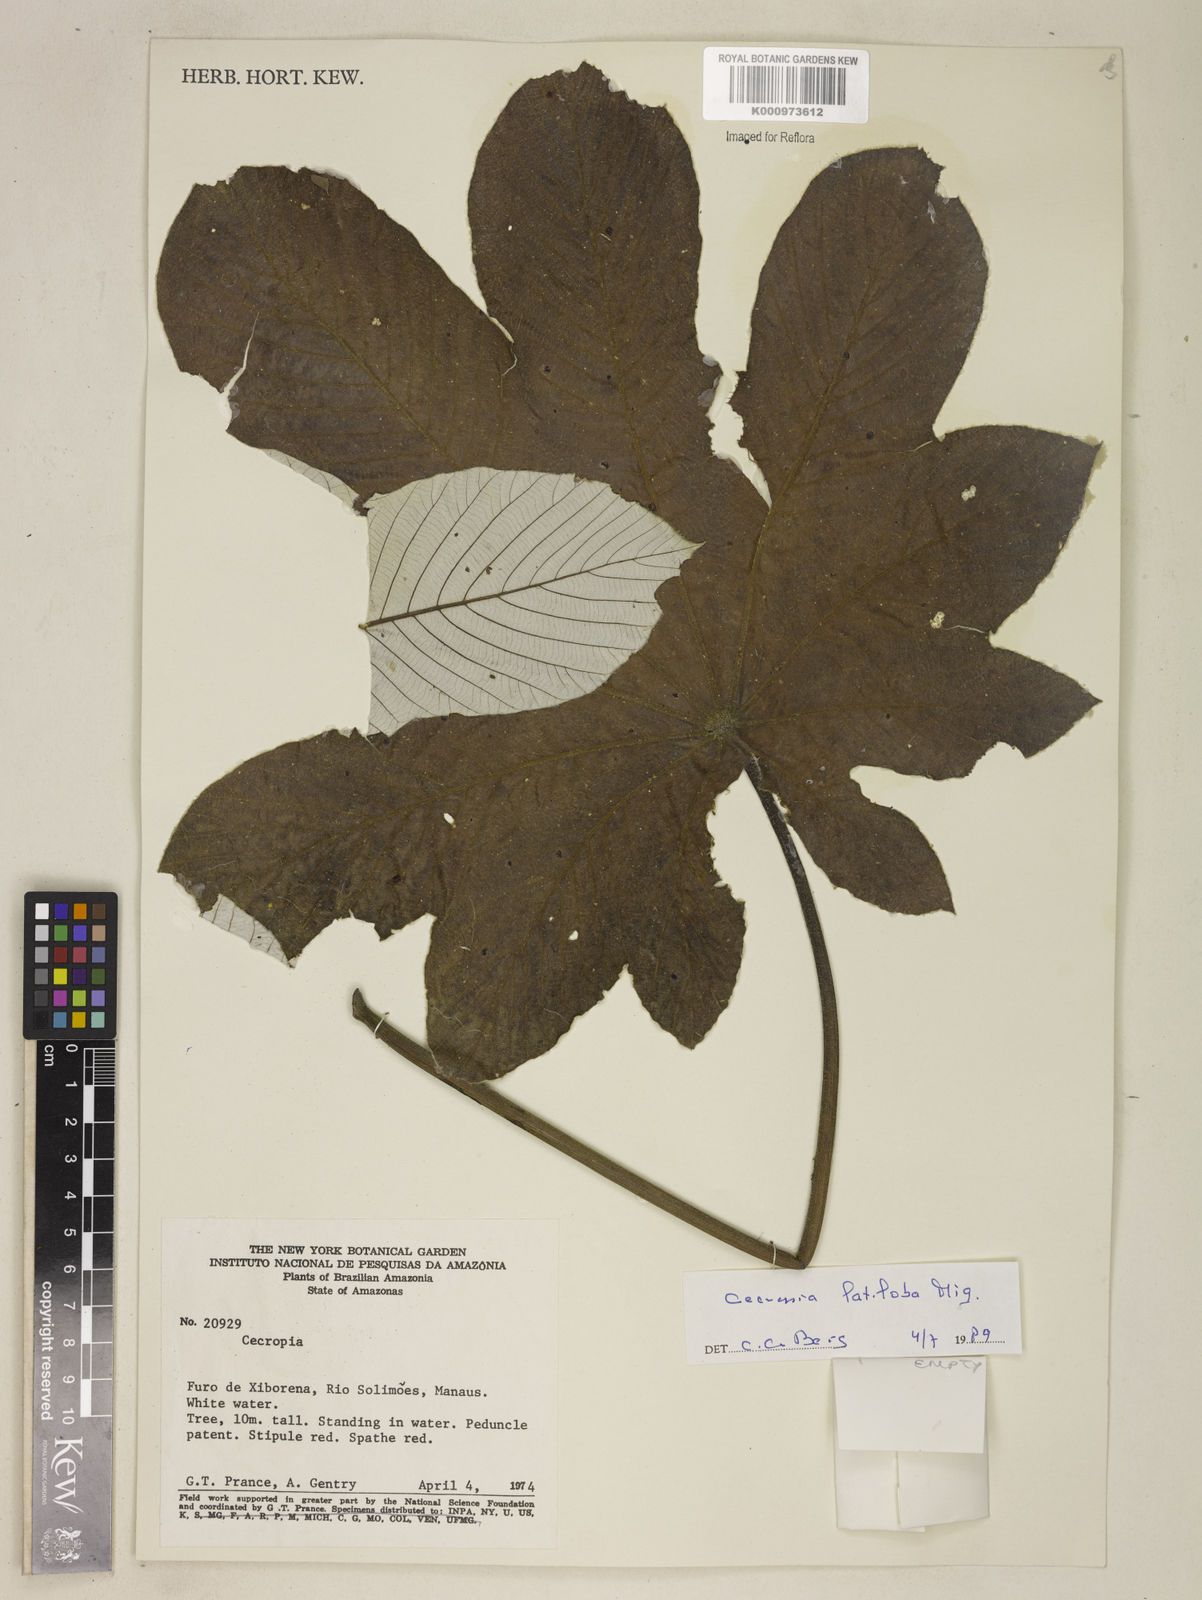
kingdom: Plantae
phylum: Tracheophyta
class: Magnoliopsida
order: Rosales
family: Urticaceae
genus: Cecropia
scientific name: Cecropia latiloba
